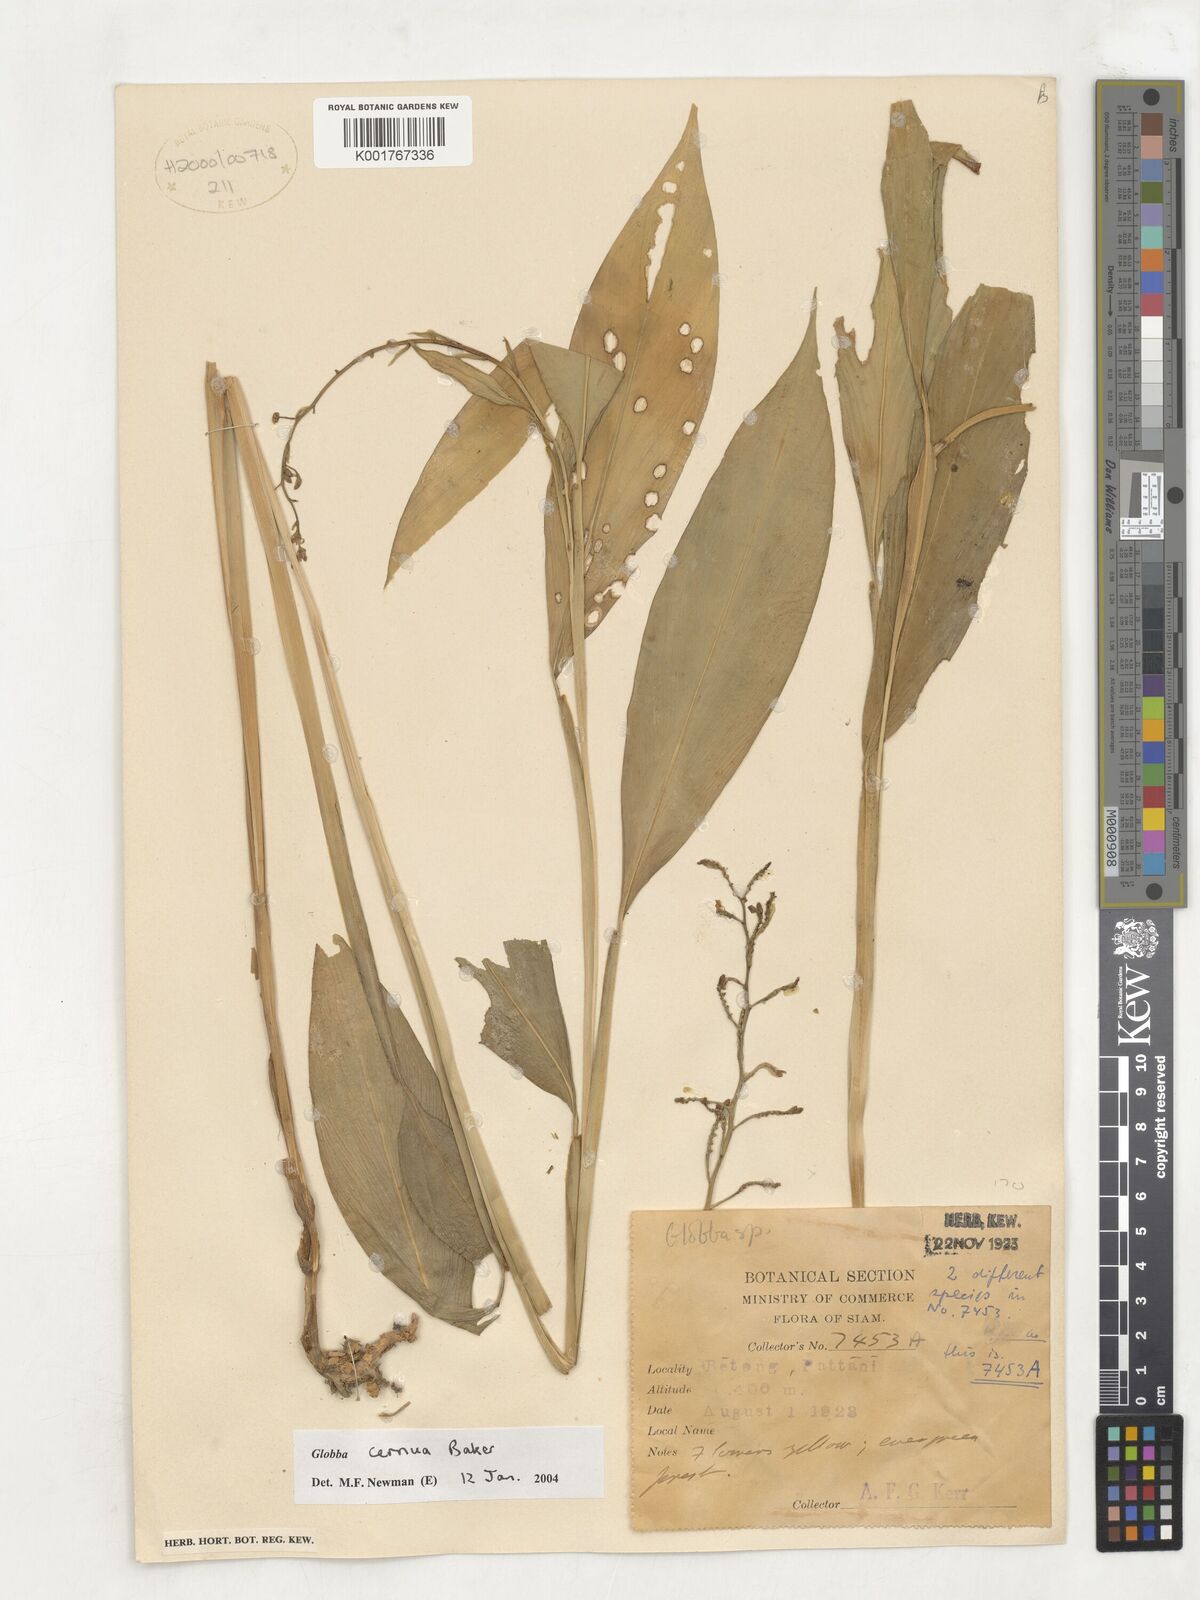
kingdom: Plantae
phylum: Tracheophyta
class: Liliopsida
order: Zingiberales
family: Zingiberaceae
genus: Globba
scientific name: Globba cernua
